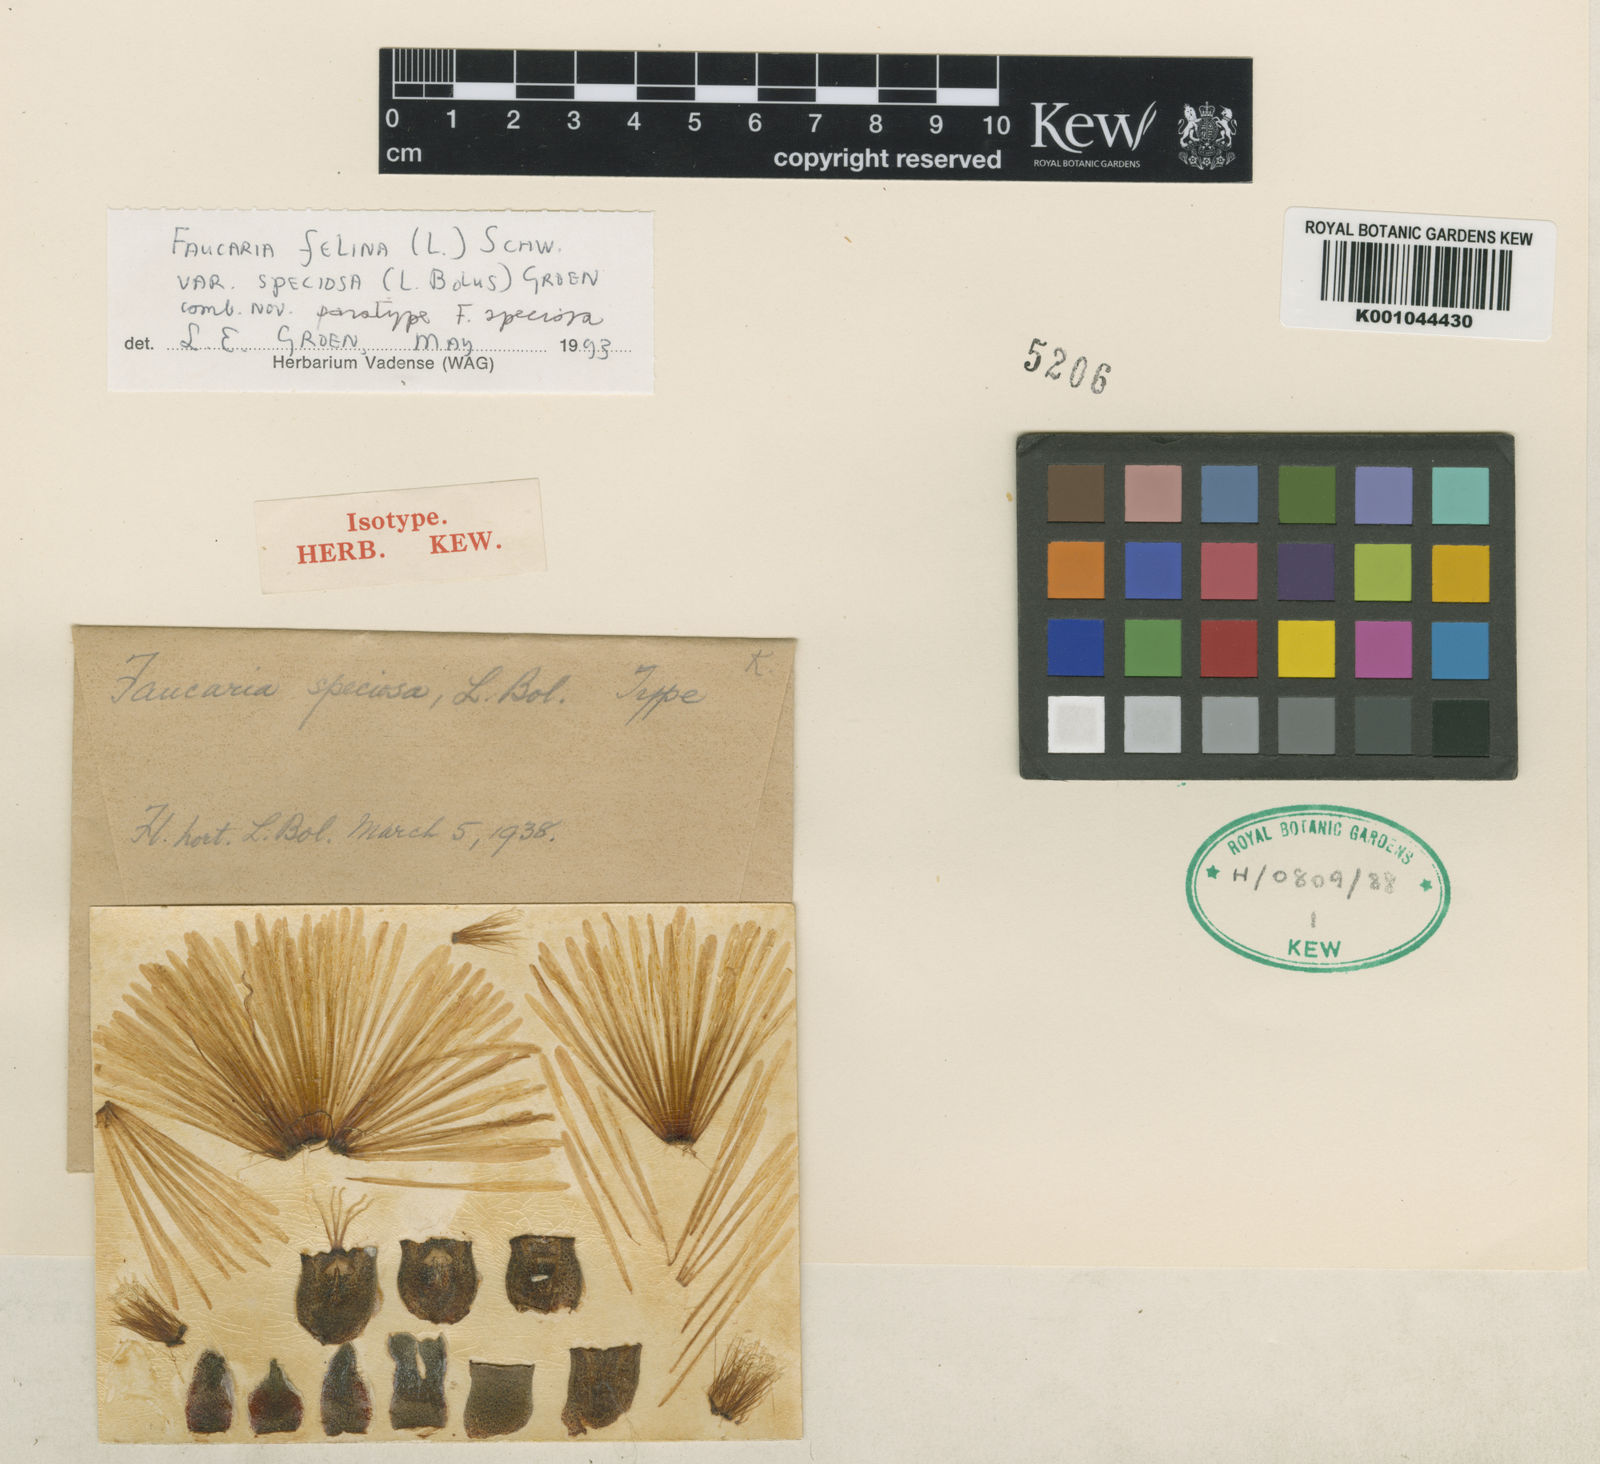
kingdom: Plantae
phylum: Tracheophyta
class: Magnoliopsida
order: Caryophyllales
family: Aizoaceae
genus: Faucaria
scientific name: Faucaria britteniae
